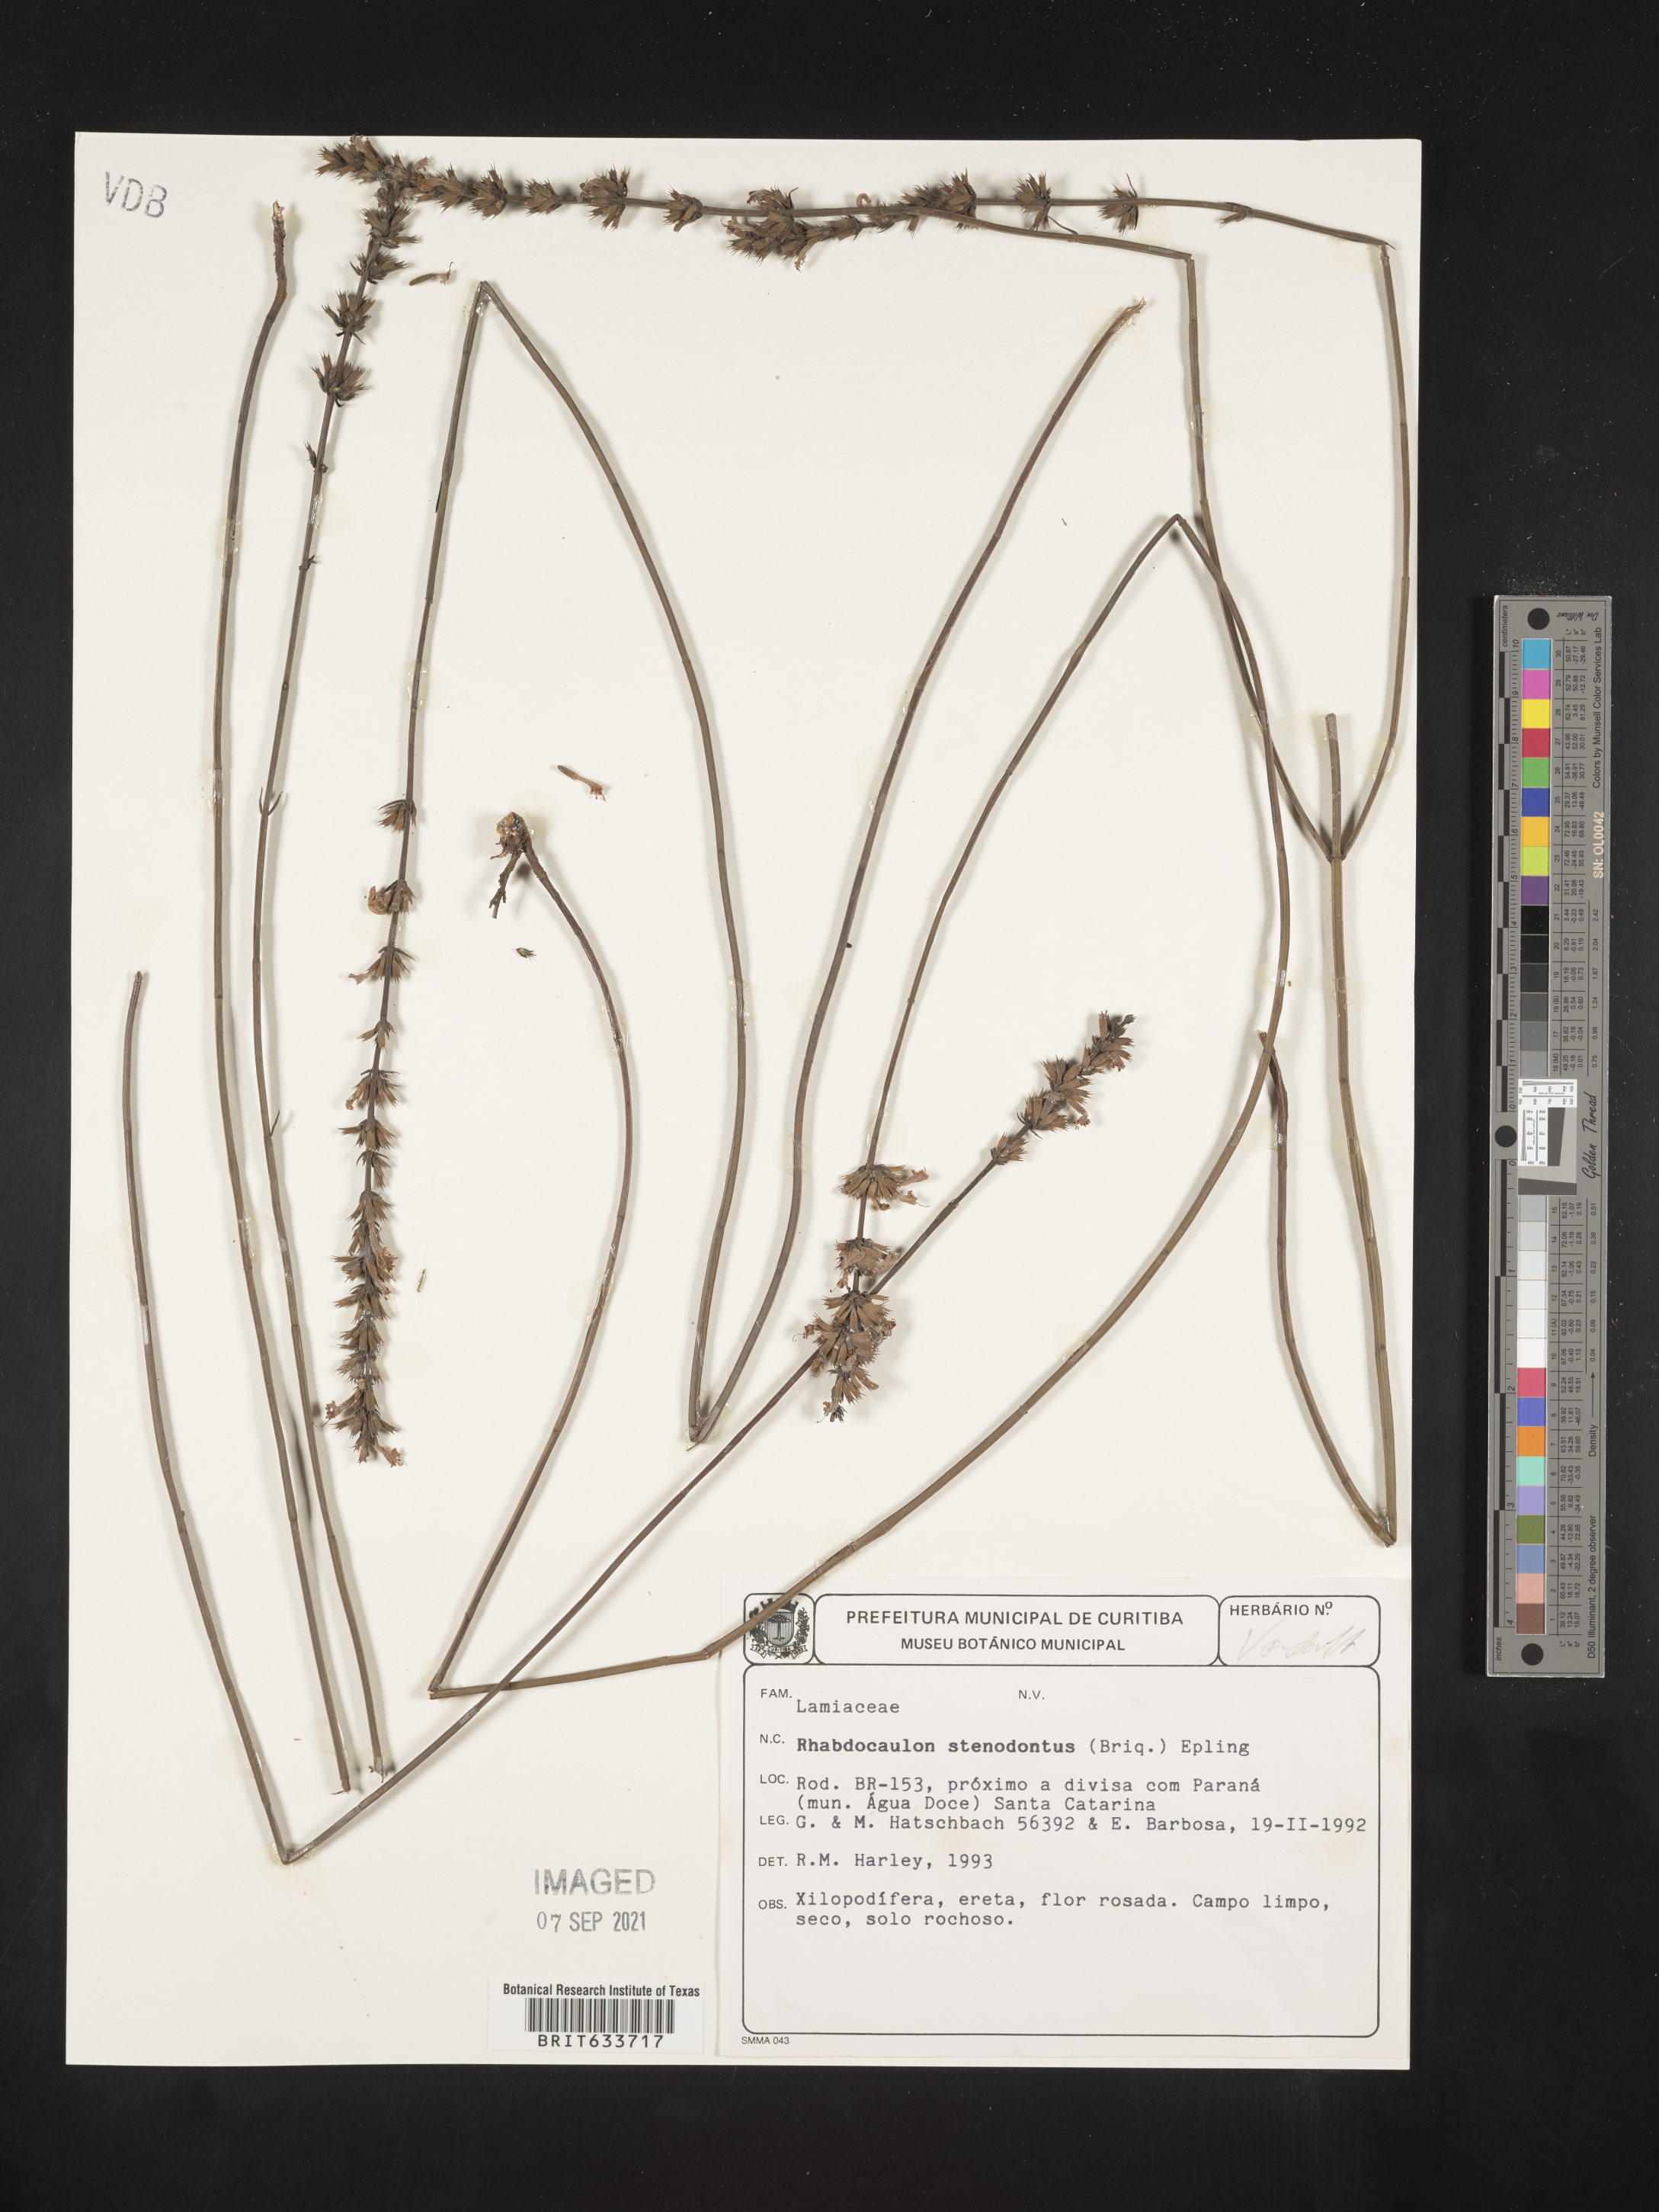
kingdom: Plantae
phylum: Tracheophyta
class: Magnoliopsida
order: Lamiales
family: Lamiaceae
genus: Rhabdocaulon
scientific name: Rhabdocaulon
